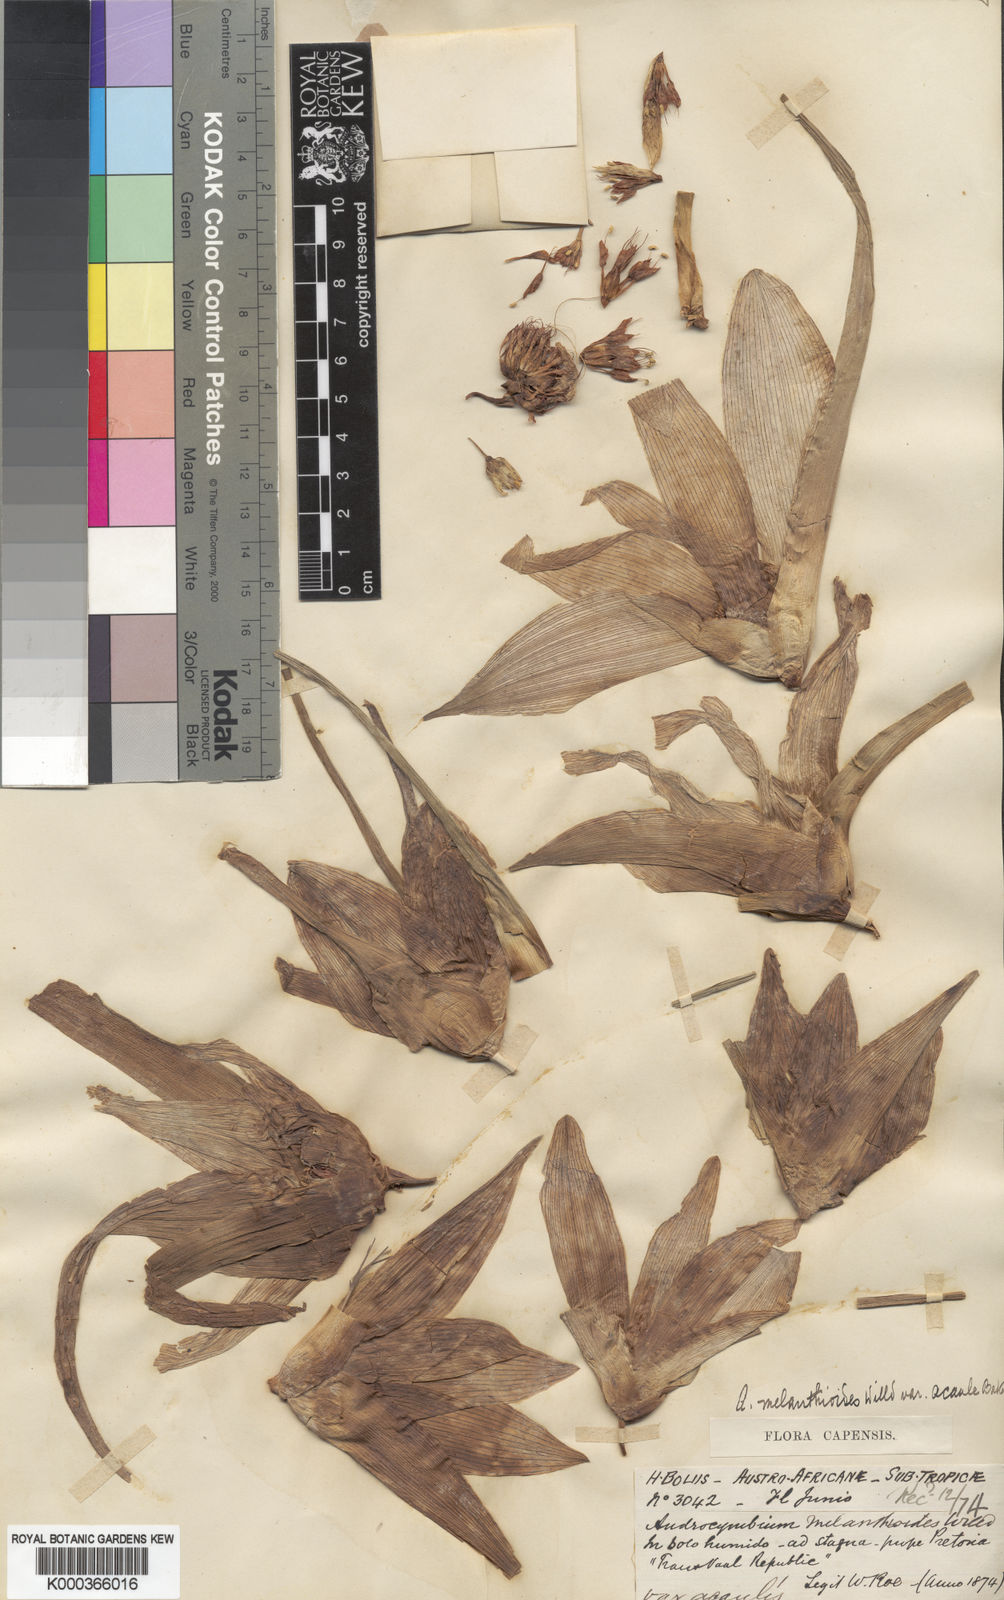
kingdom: Plantae
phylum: Tracheophyta
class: Liliopsida
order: Liliales
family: Colchicaceae
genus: Colchicum
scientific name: Colchicum melanthioides
